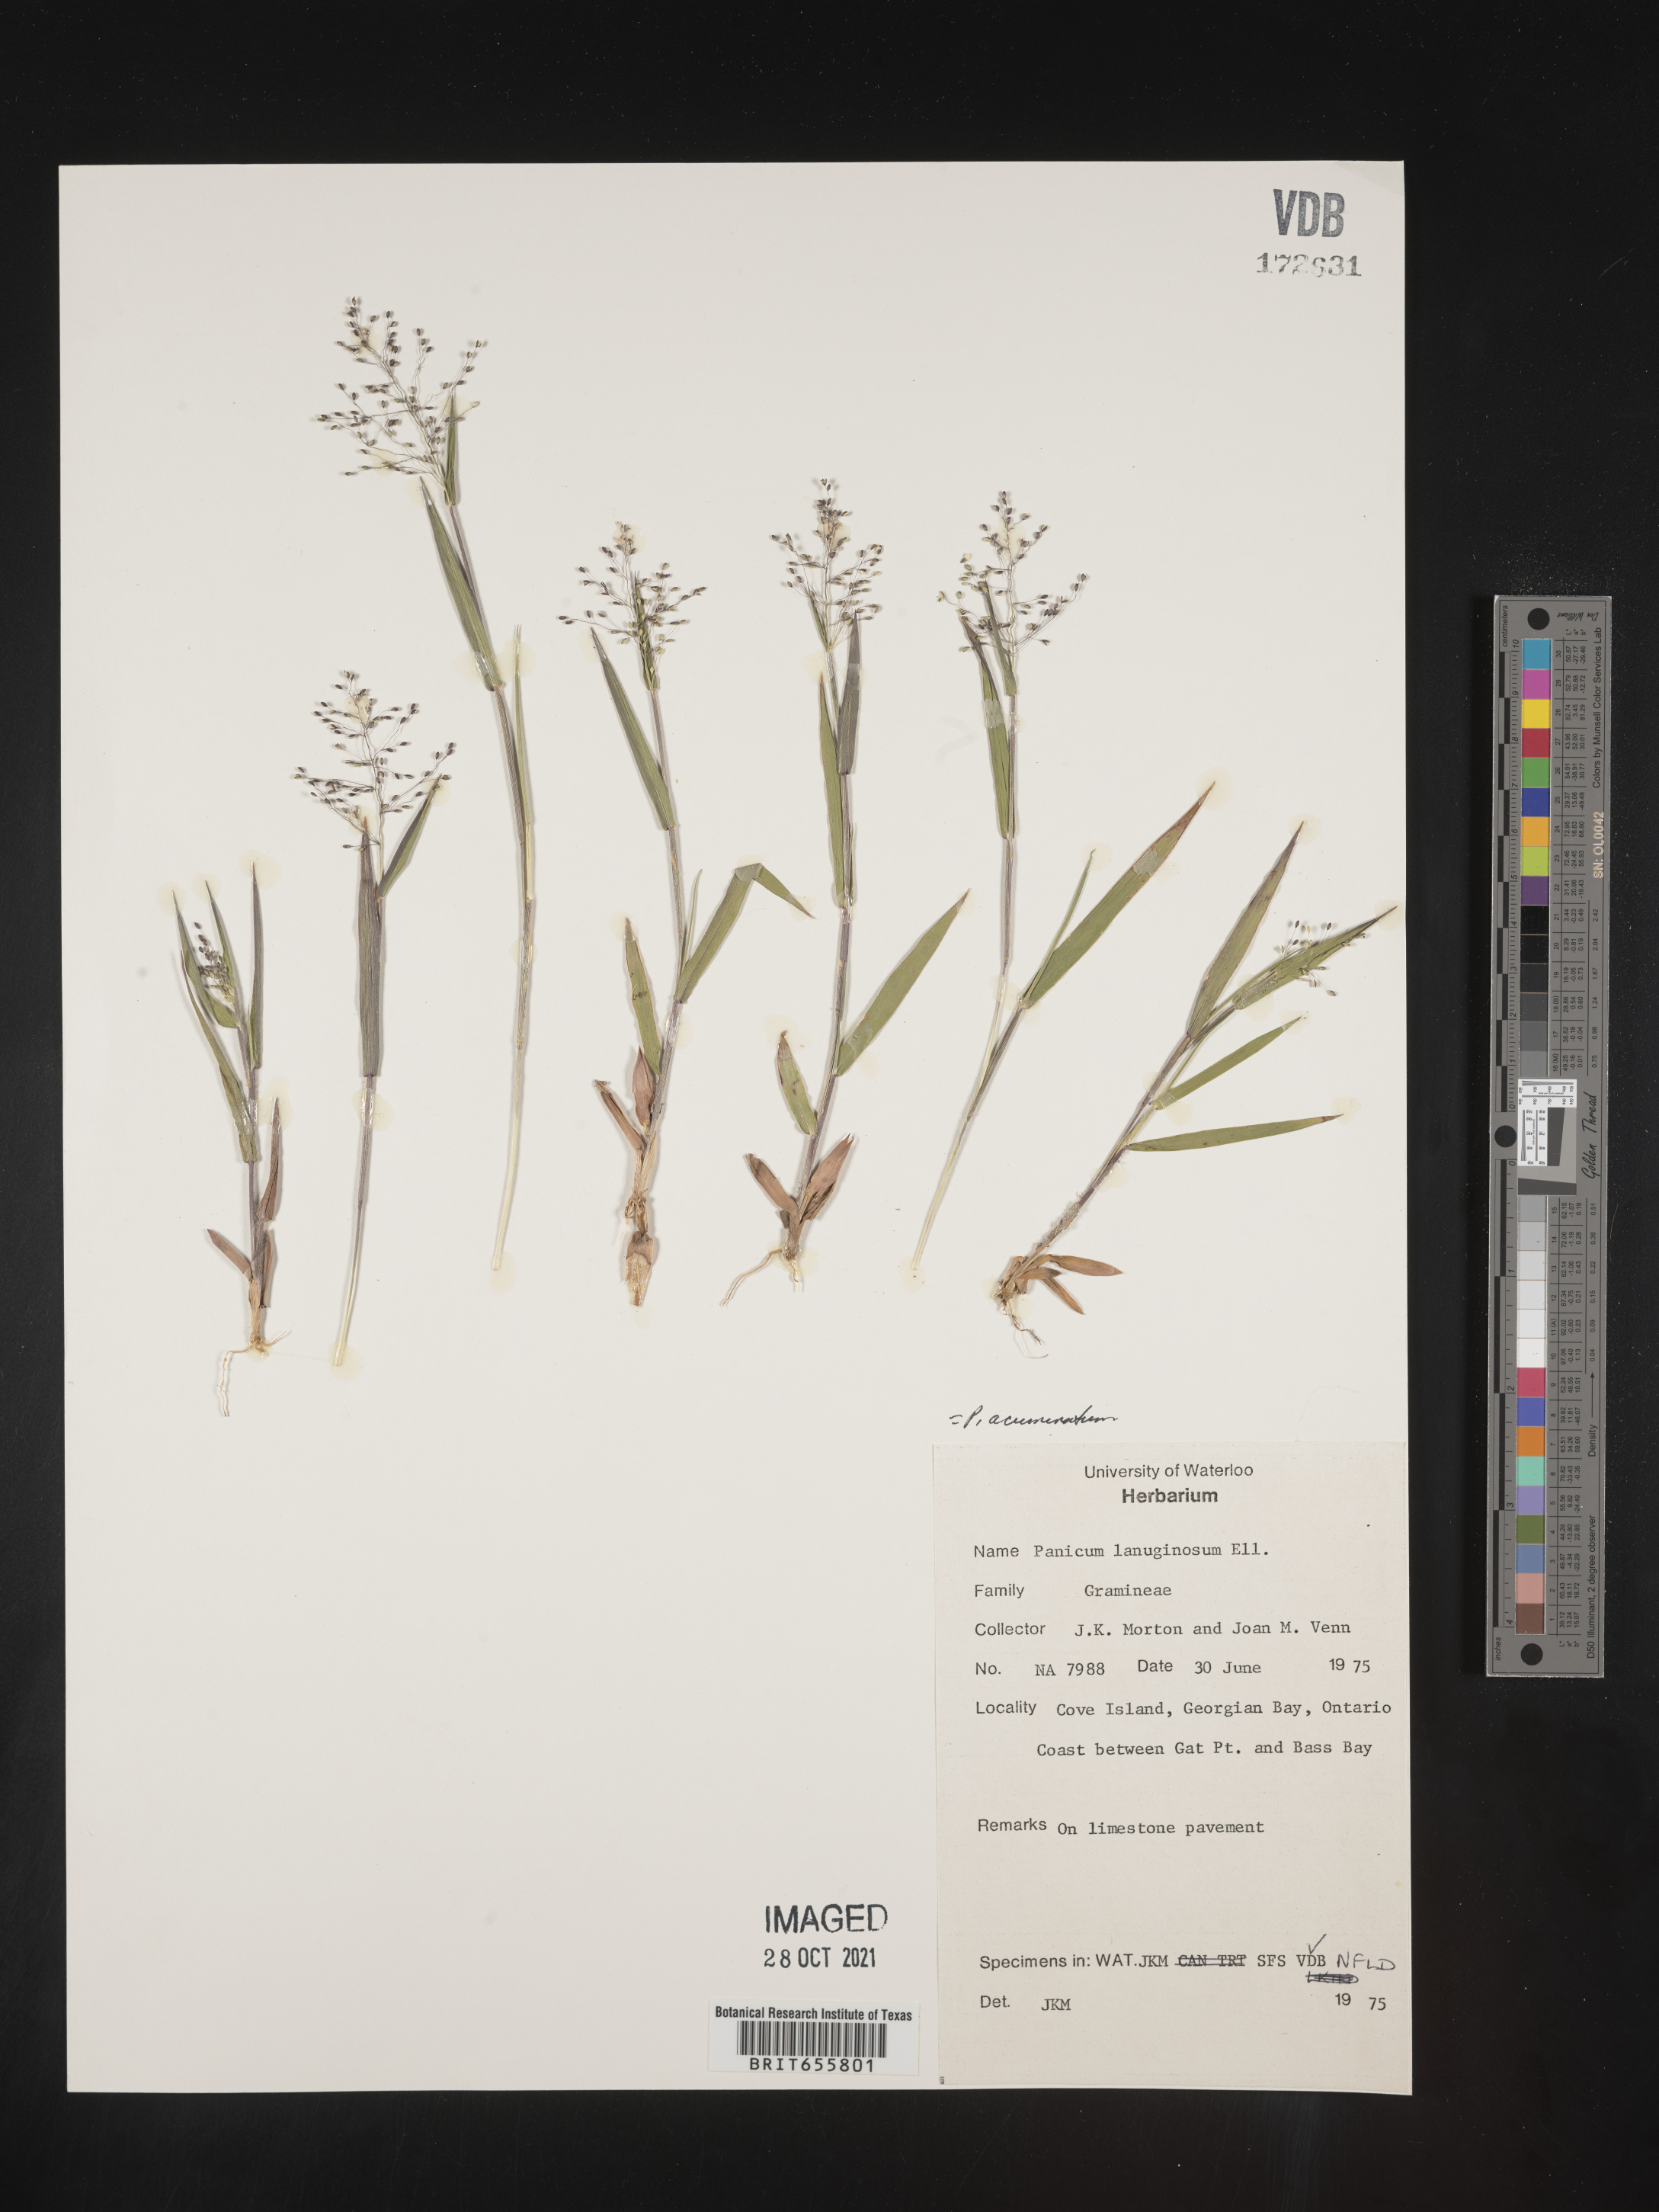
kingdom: Plantae
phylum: Tracheophyta
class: Liliopsida
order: Poales
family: Poaceae
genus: Panicum
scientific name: Panicum
